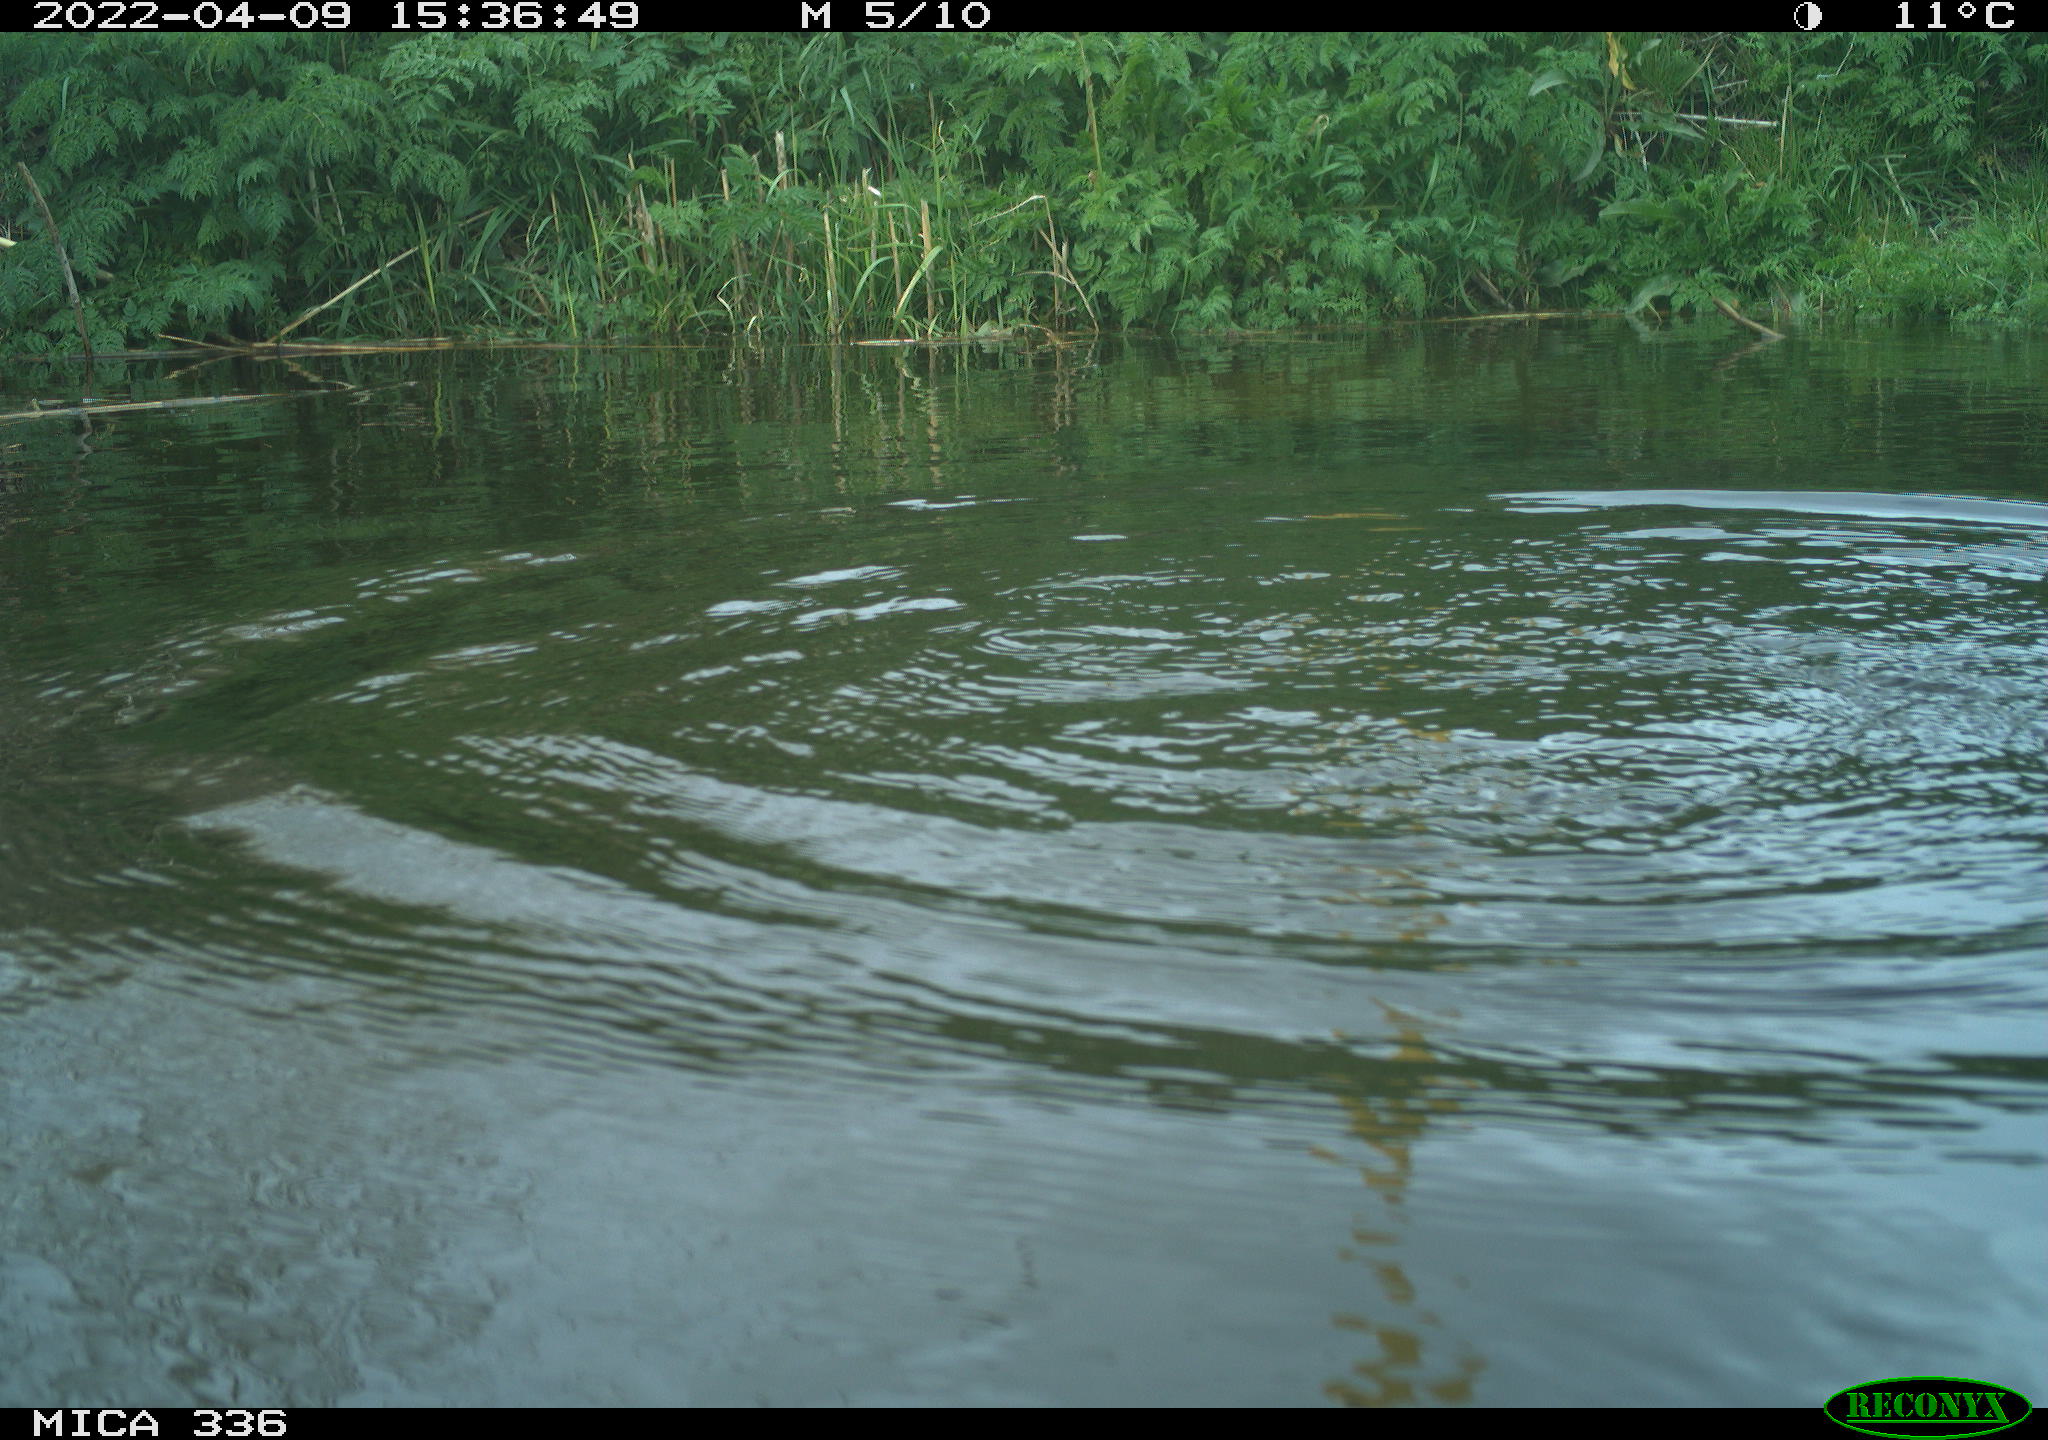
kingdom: Animalia
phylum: Chordata
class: Aves
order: Podicipediformes
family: Podicipedidae
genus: Podiceps
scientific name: Podiceps cristatus
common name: Great crested grebe
